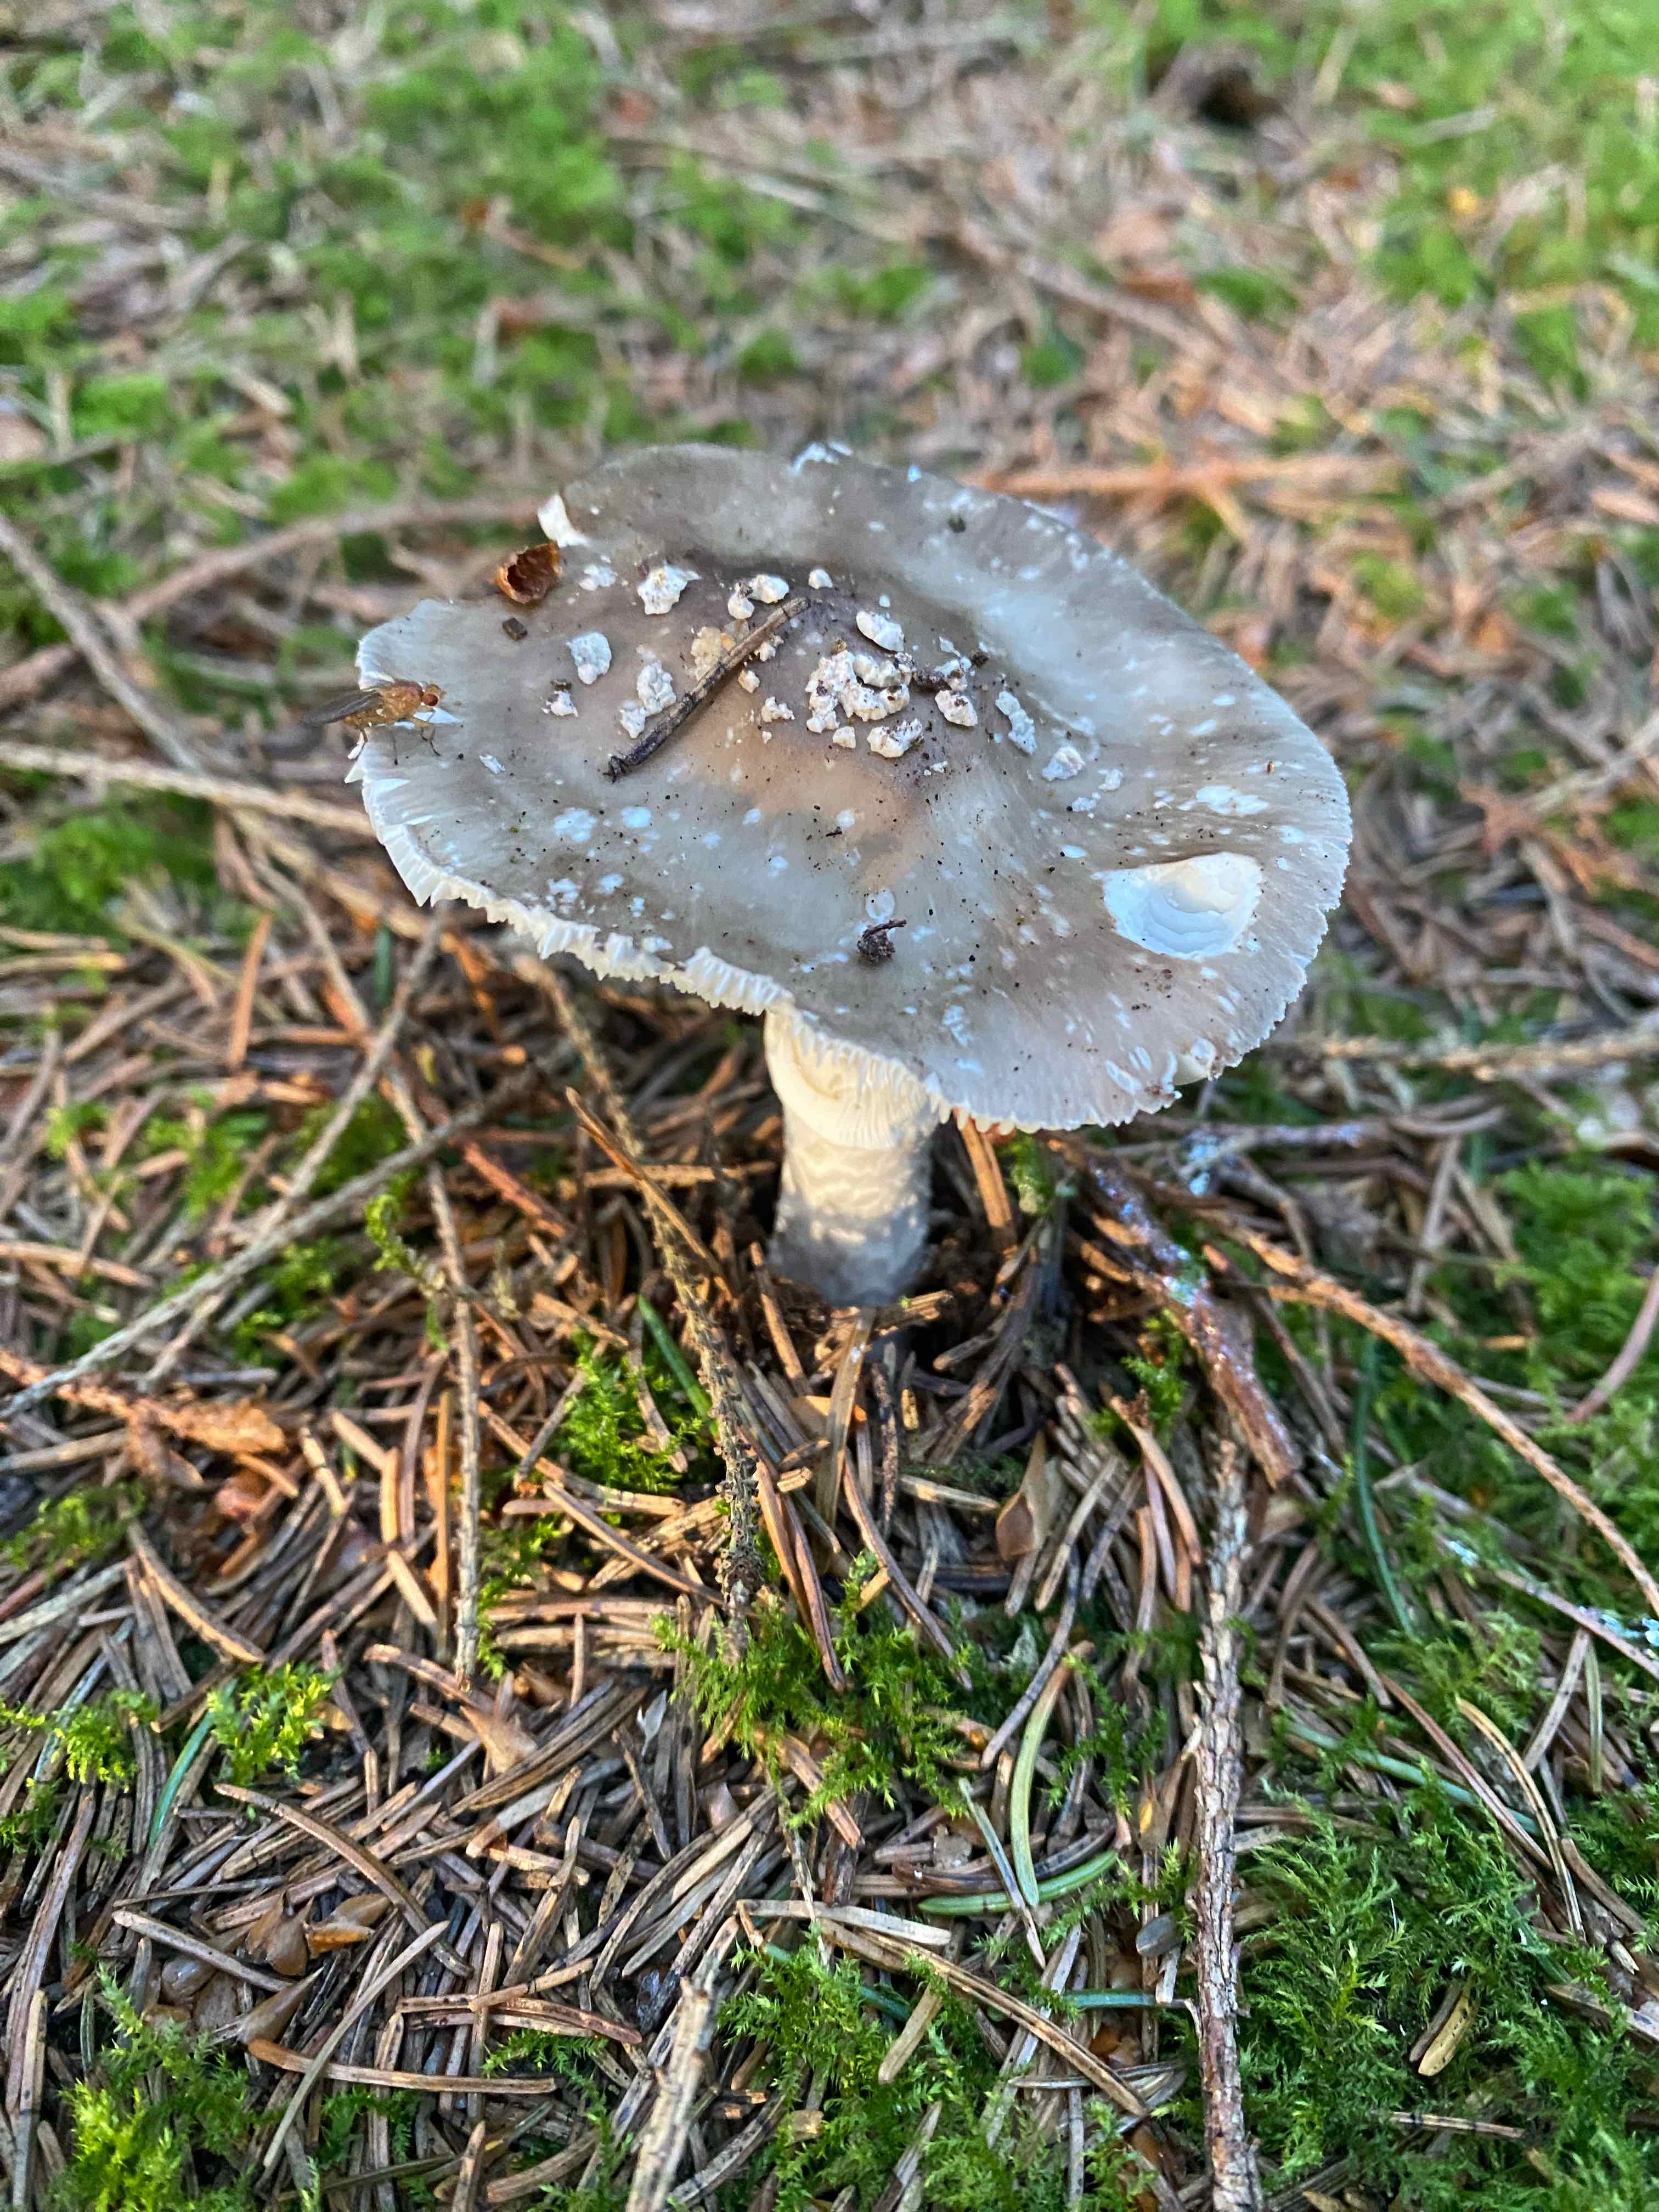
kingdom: Fungi
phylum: Basidiomycota
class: Agaricomycetes
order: Agaricales
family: Amanitaceae
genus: Amanita
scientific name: Amanita
